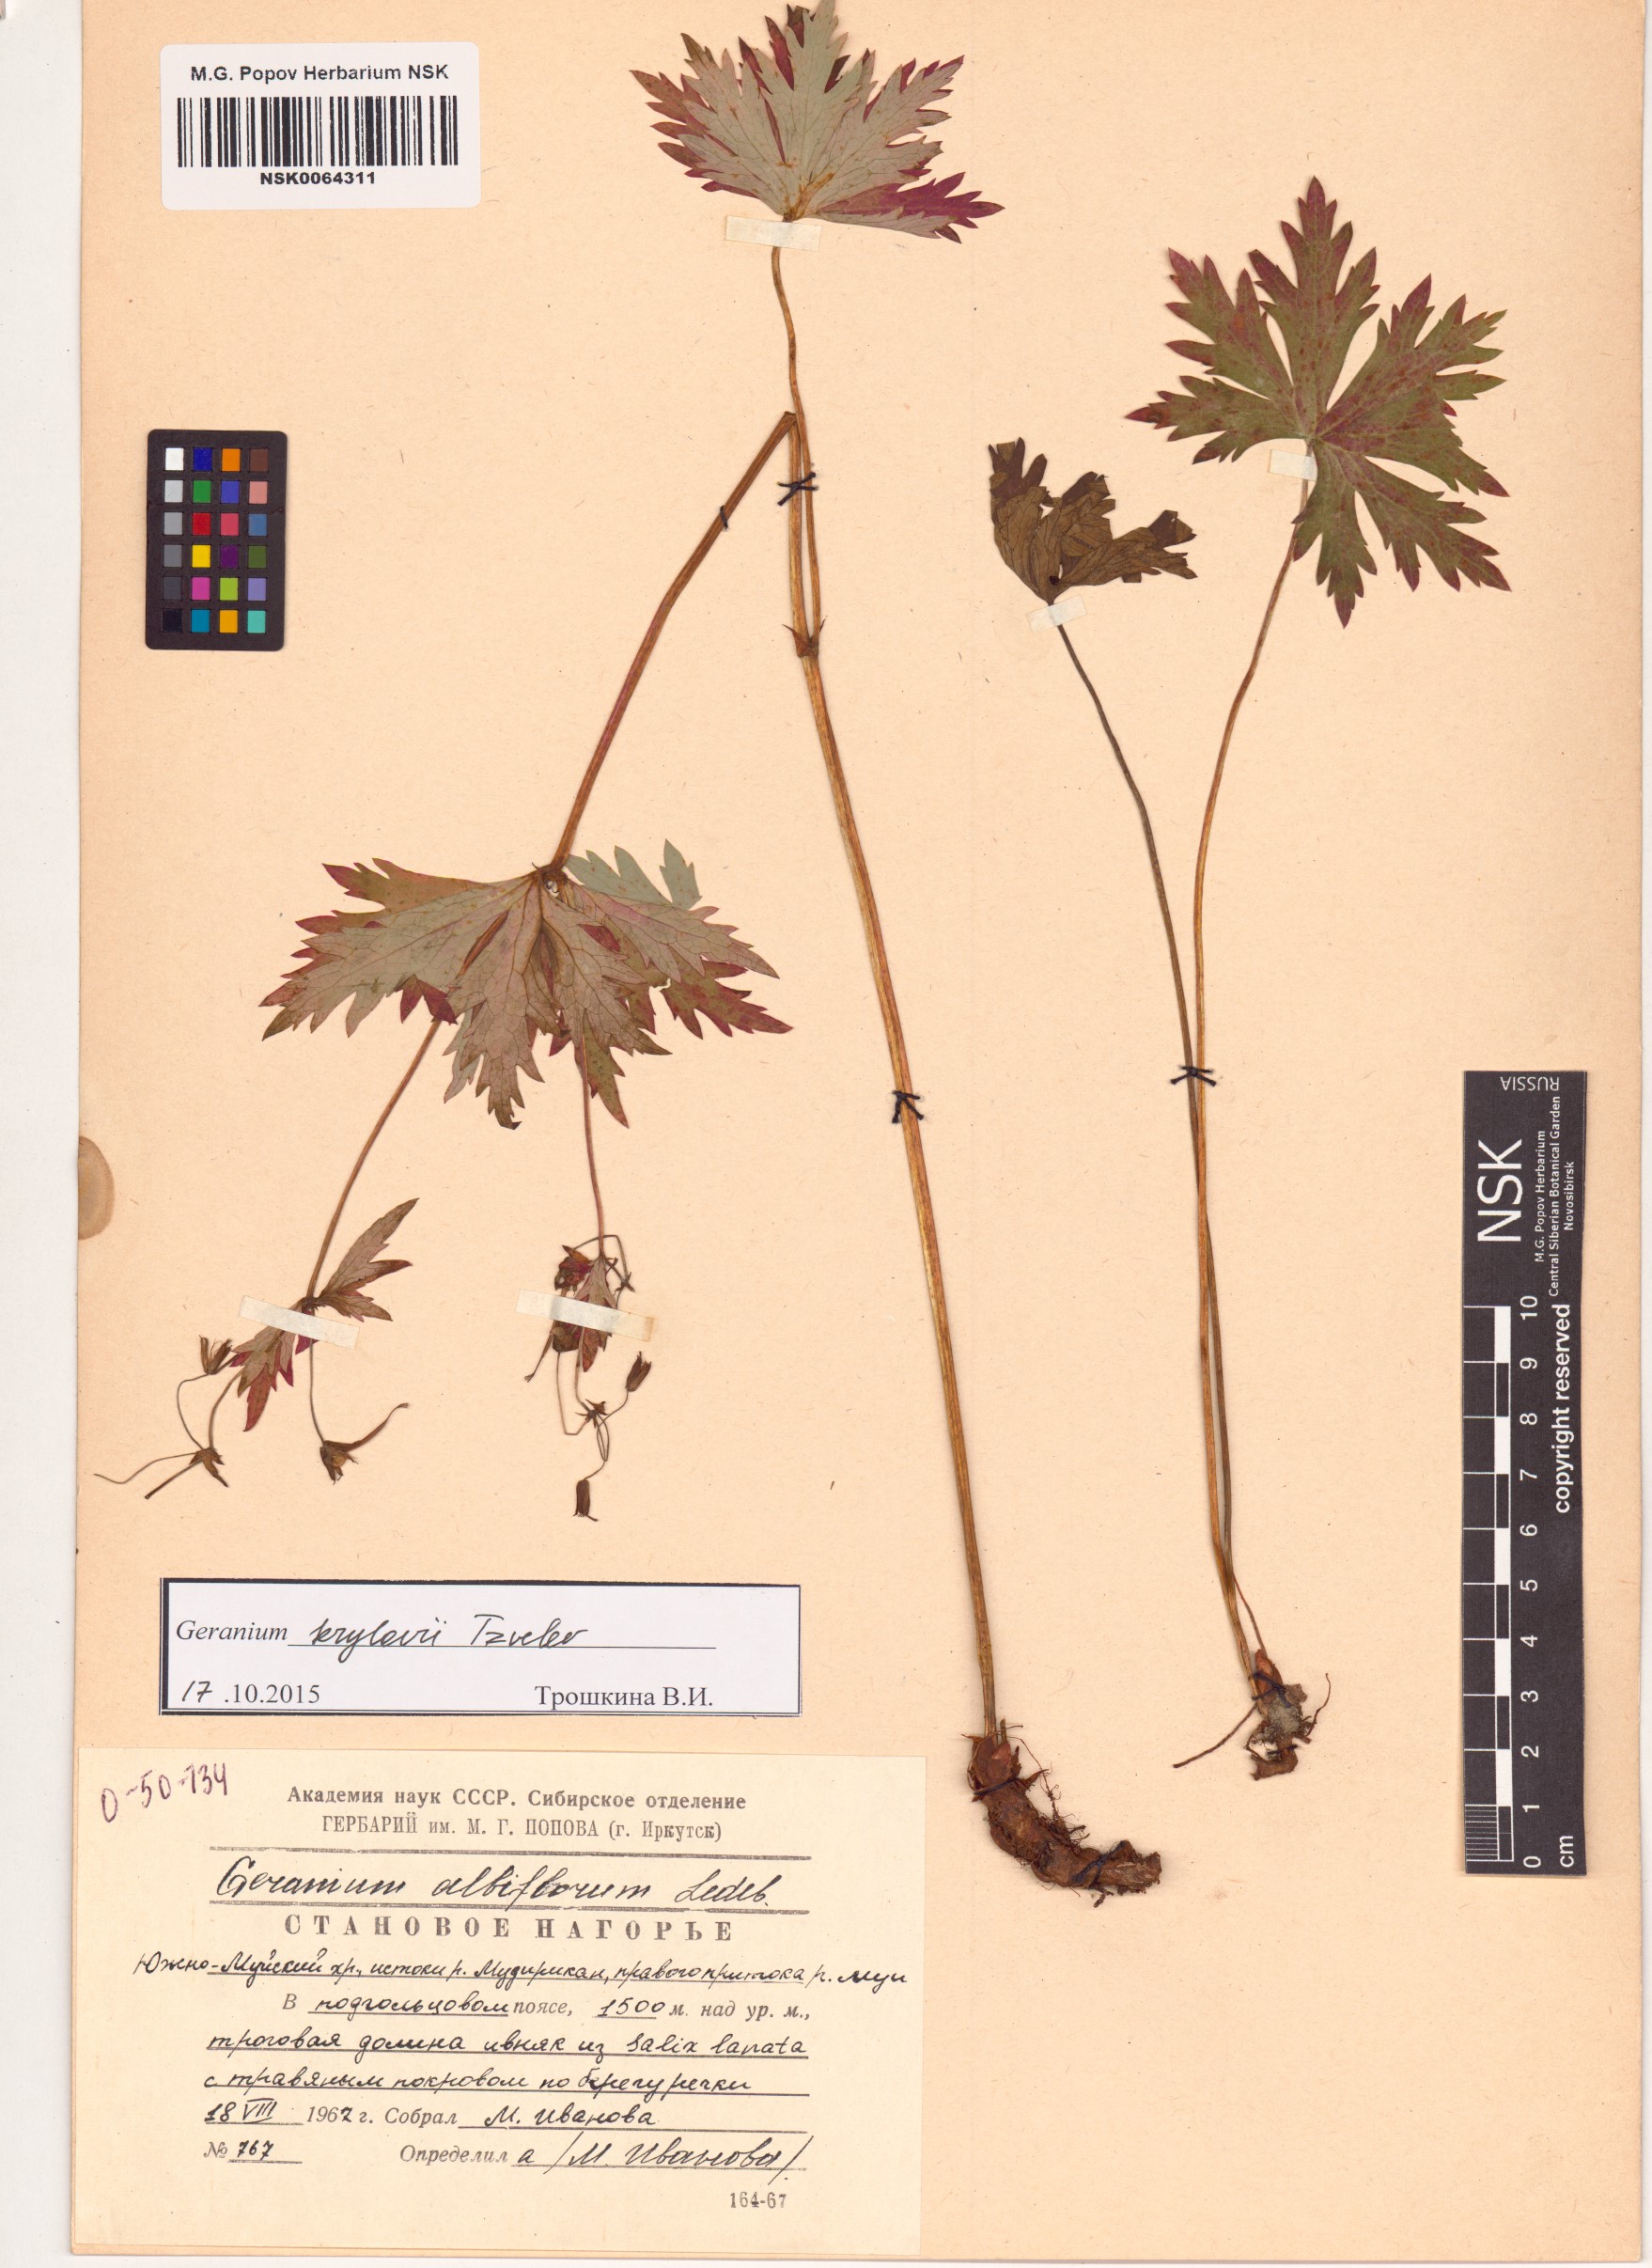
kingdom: Plantae
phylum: Tracheophyta
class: Magnoliopsida
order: Geraniales
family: Geraniaceae
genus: Geranium
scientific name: Geranium sylvaticum
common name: Wood crane's-bill
